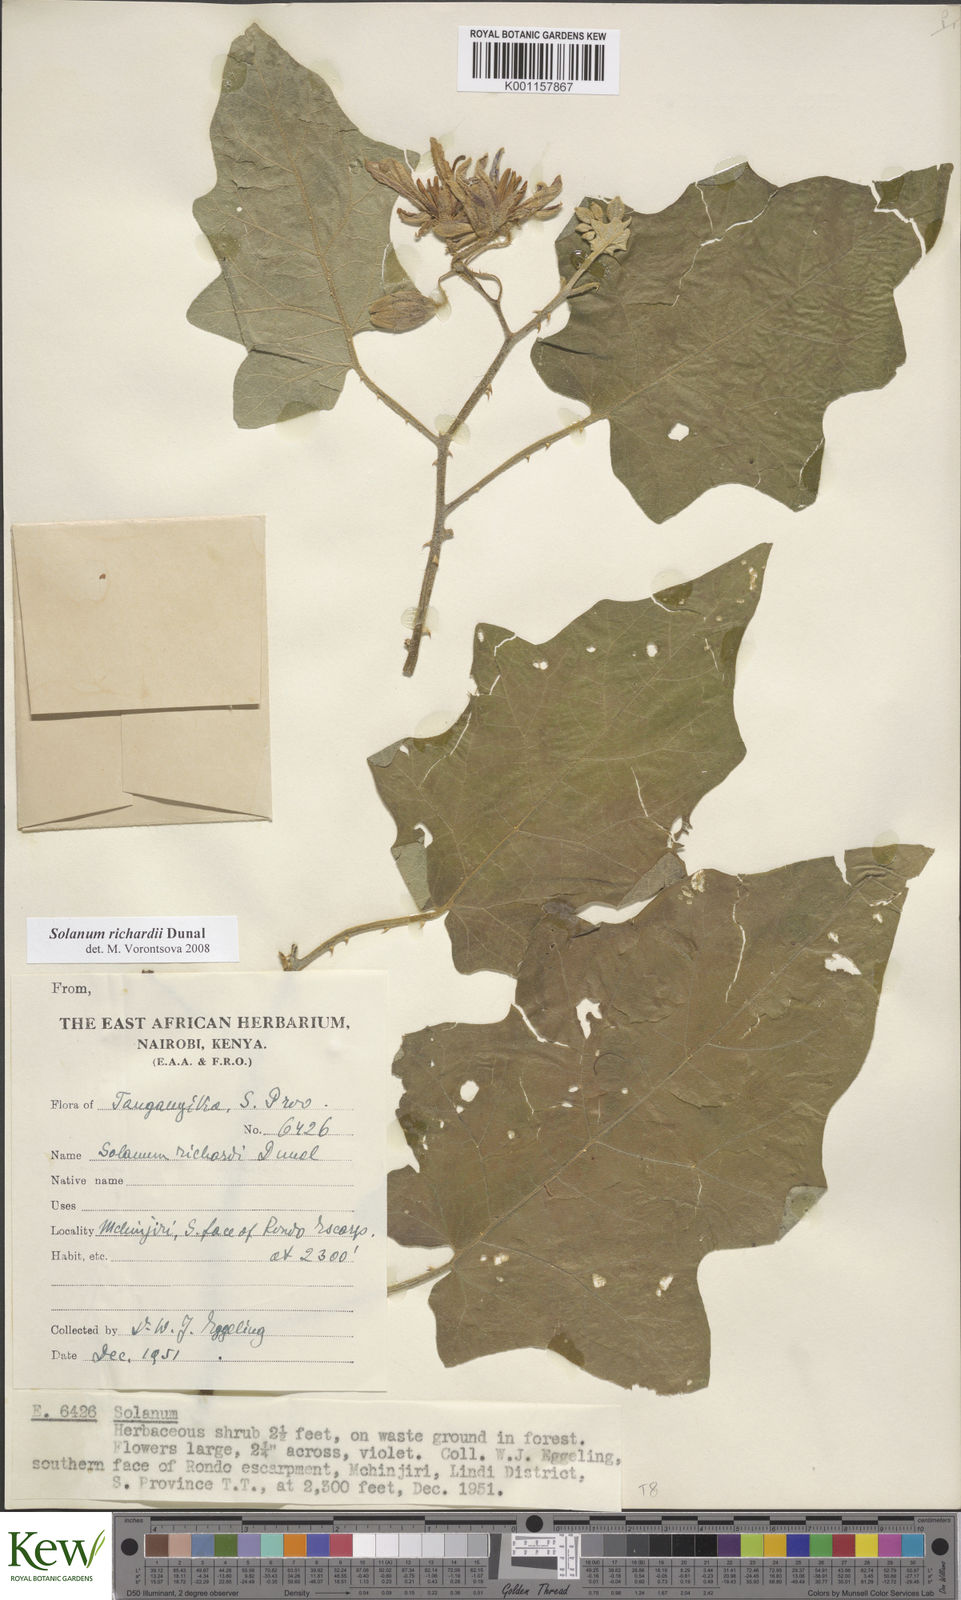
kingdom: Plantae
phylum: Tracheophyta
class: Magnoliopsida
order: Solanales
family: Solanaceae
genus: Solanum
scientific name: Solanum richardii
